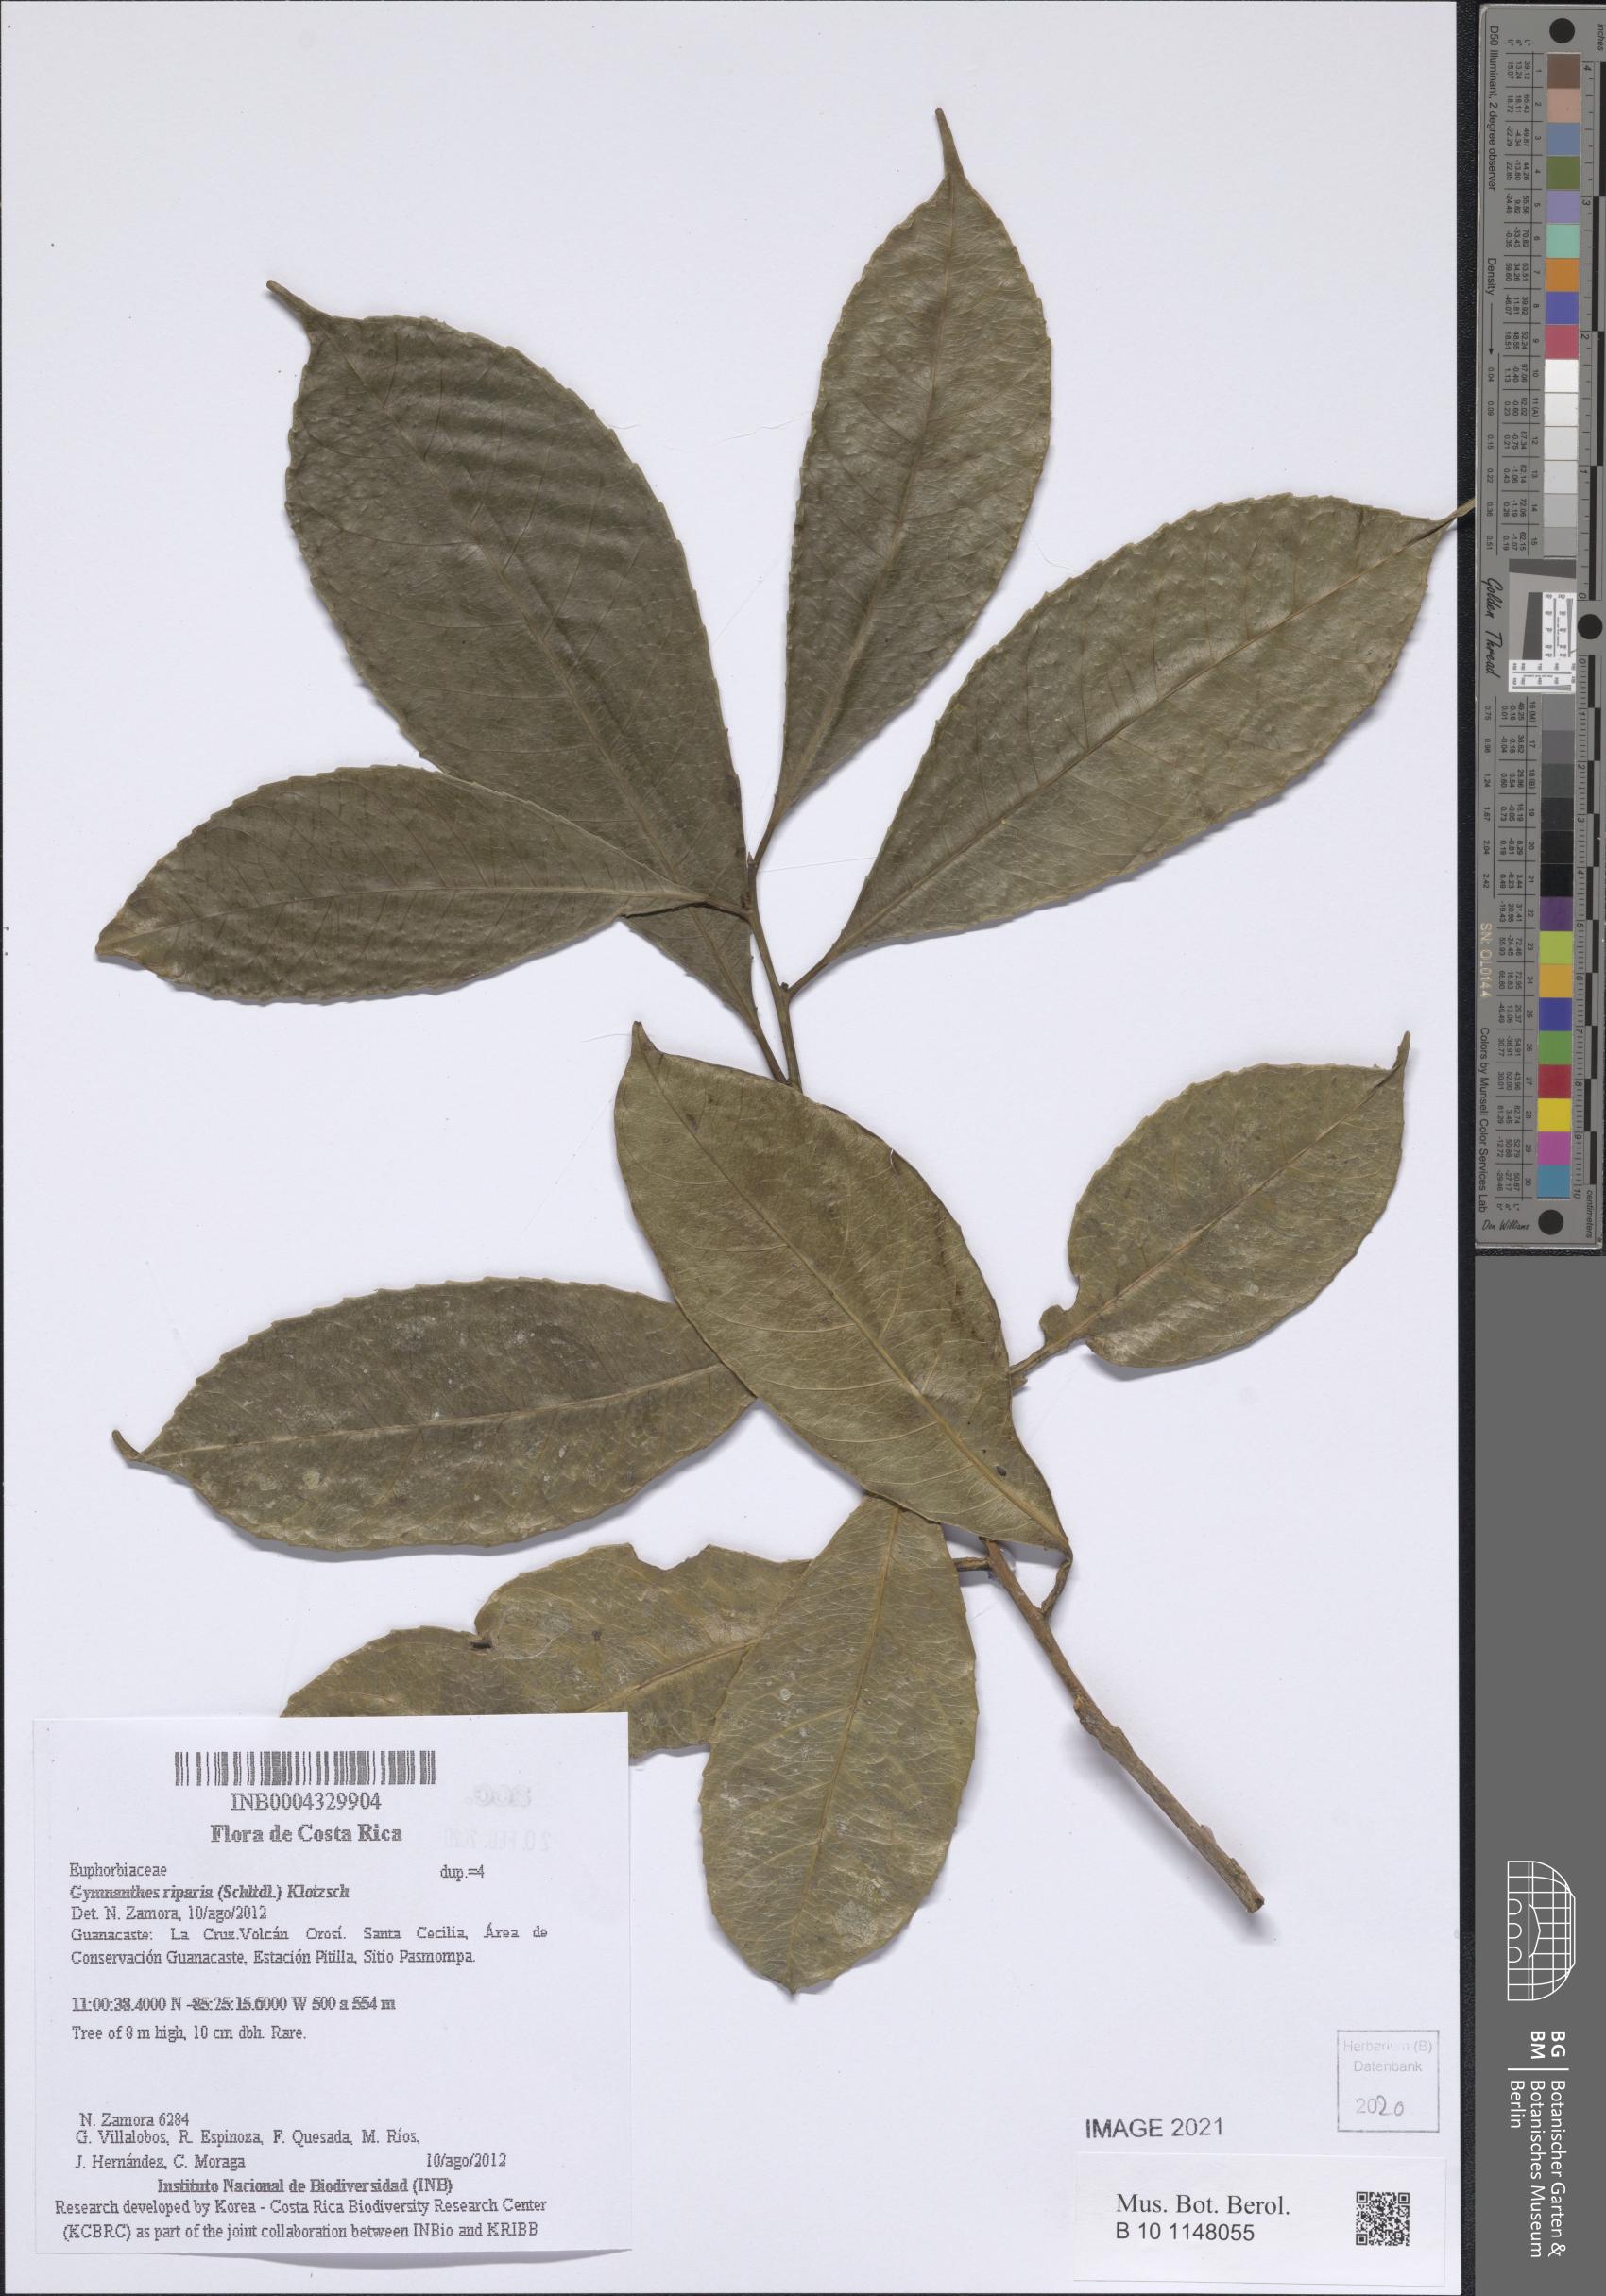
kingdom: Plantae
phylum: Tracheophyta
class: Magnoliopsida
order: Malpighiales
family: Euphorbiaceae
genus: Gymnanthes
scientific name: Gymnanthes riparia
